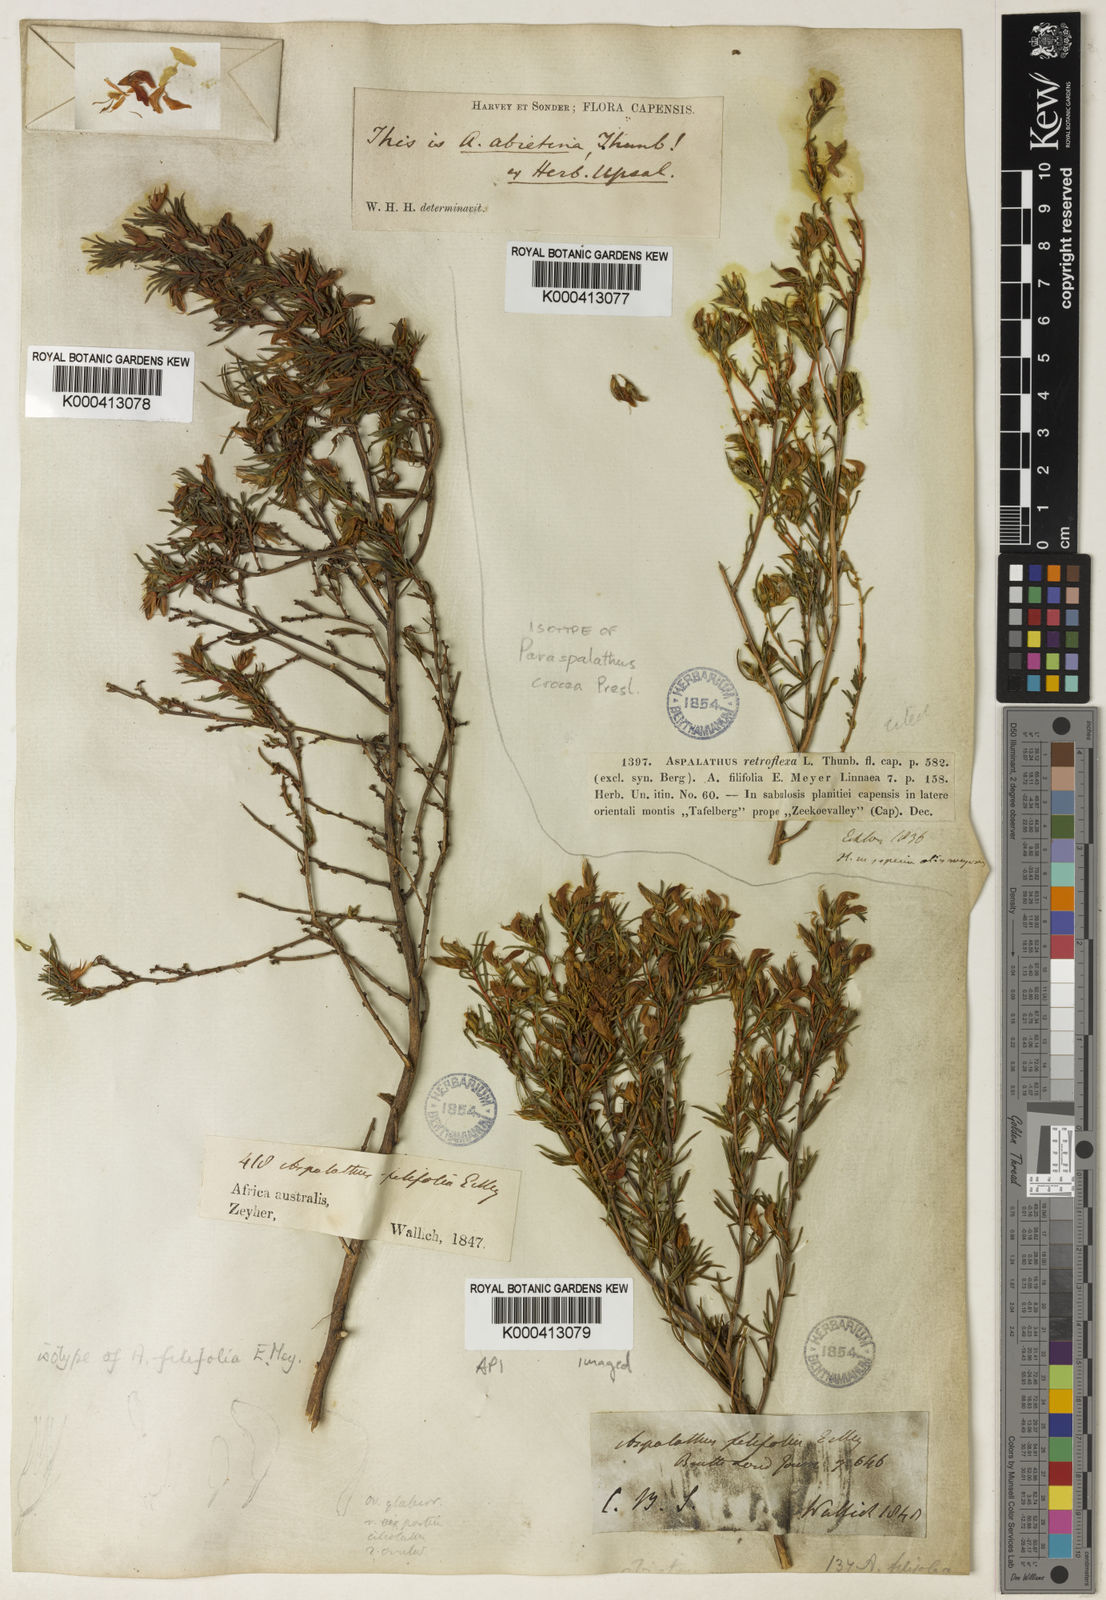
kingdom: Plantae
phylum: Tracheophyta
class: Magnoliopsida
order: Fabales
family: Fabaceae
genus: Aspalathus
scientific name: Aspalathus abietina
